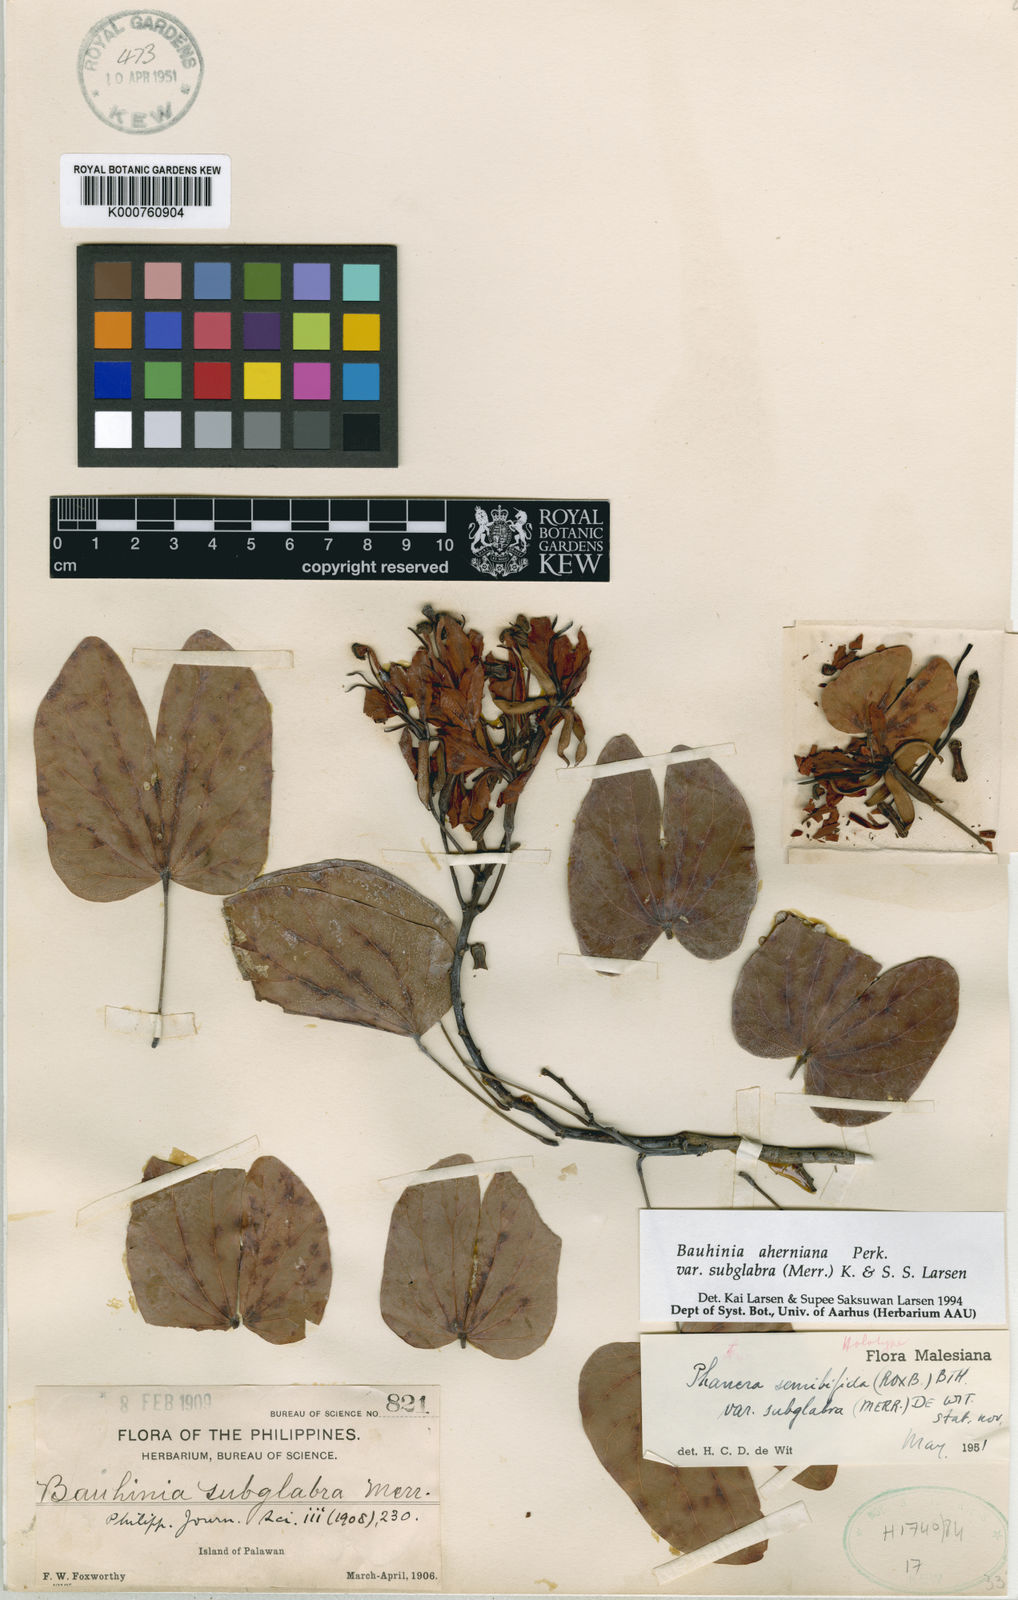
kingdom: Plantae
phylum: Tracheophyta
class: Magnoliopsida
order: Fabales
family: Fabaceae
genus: Phanera
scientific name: Phanera semibifida
